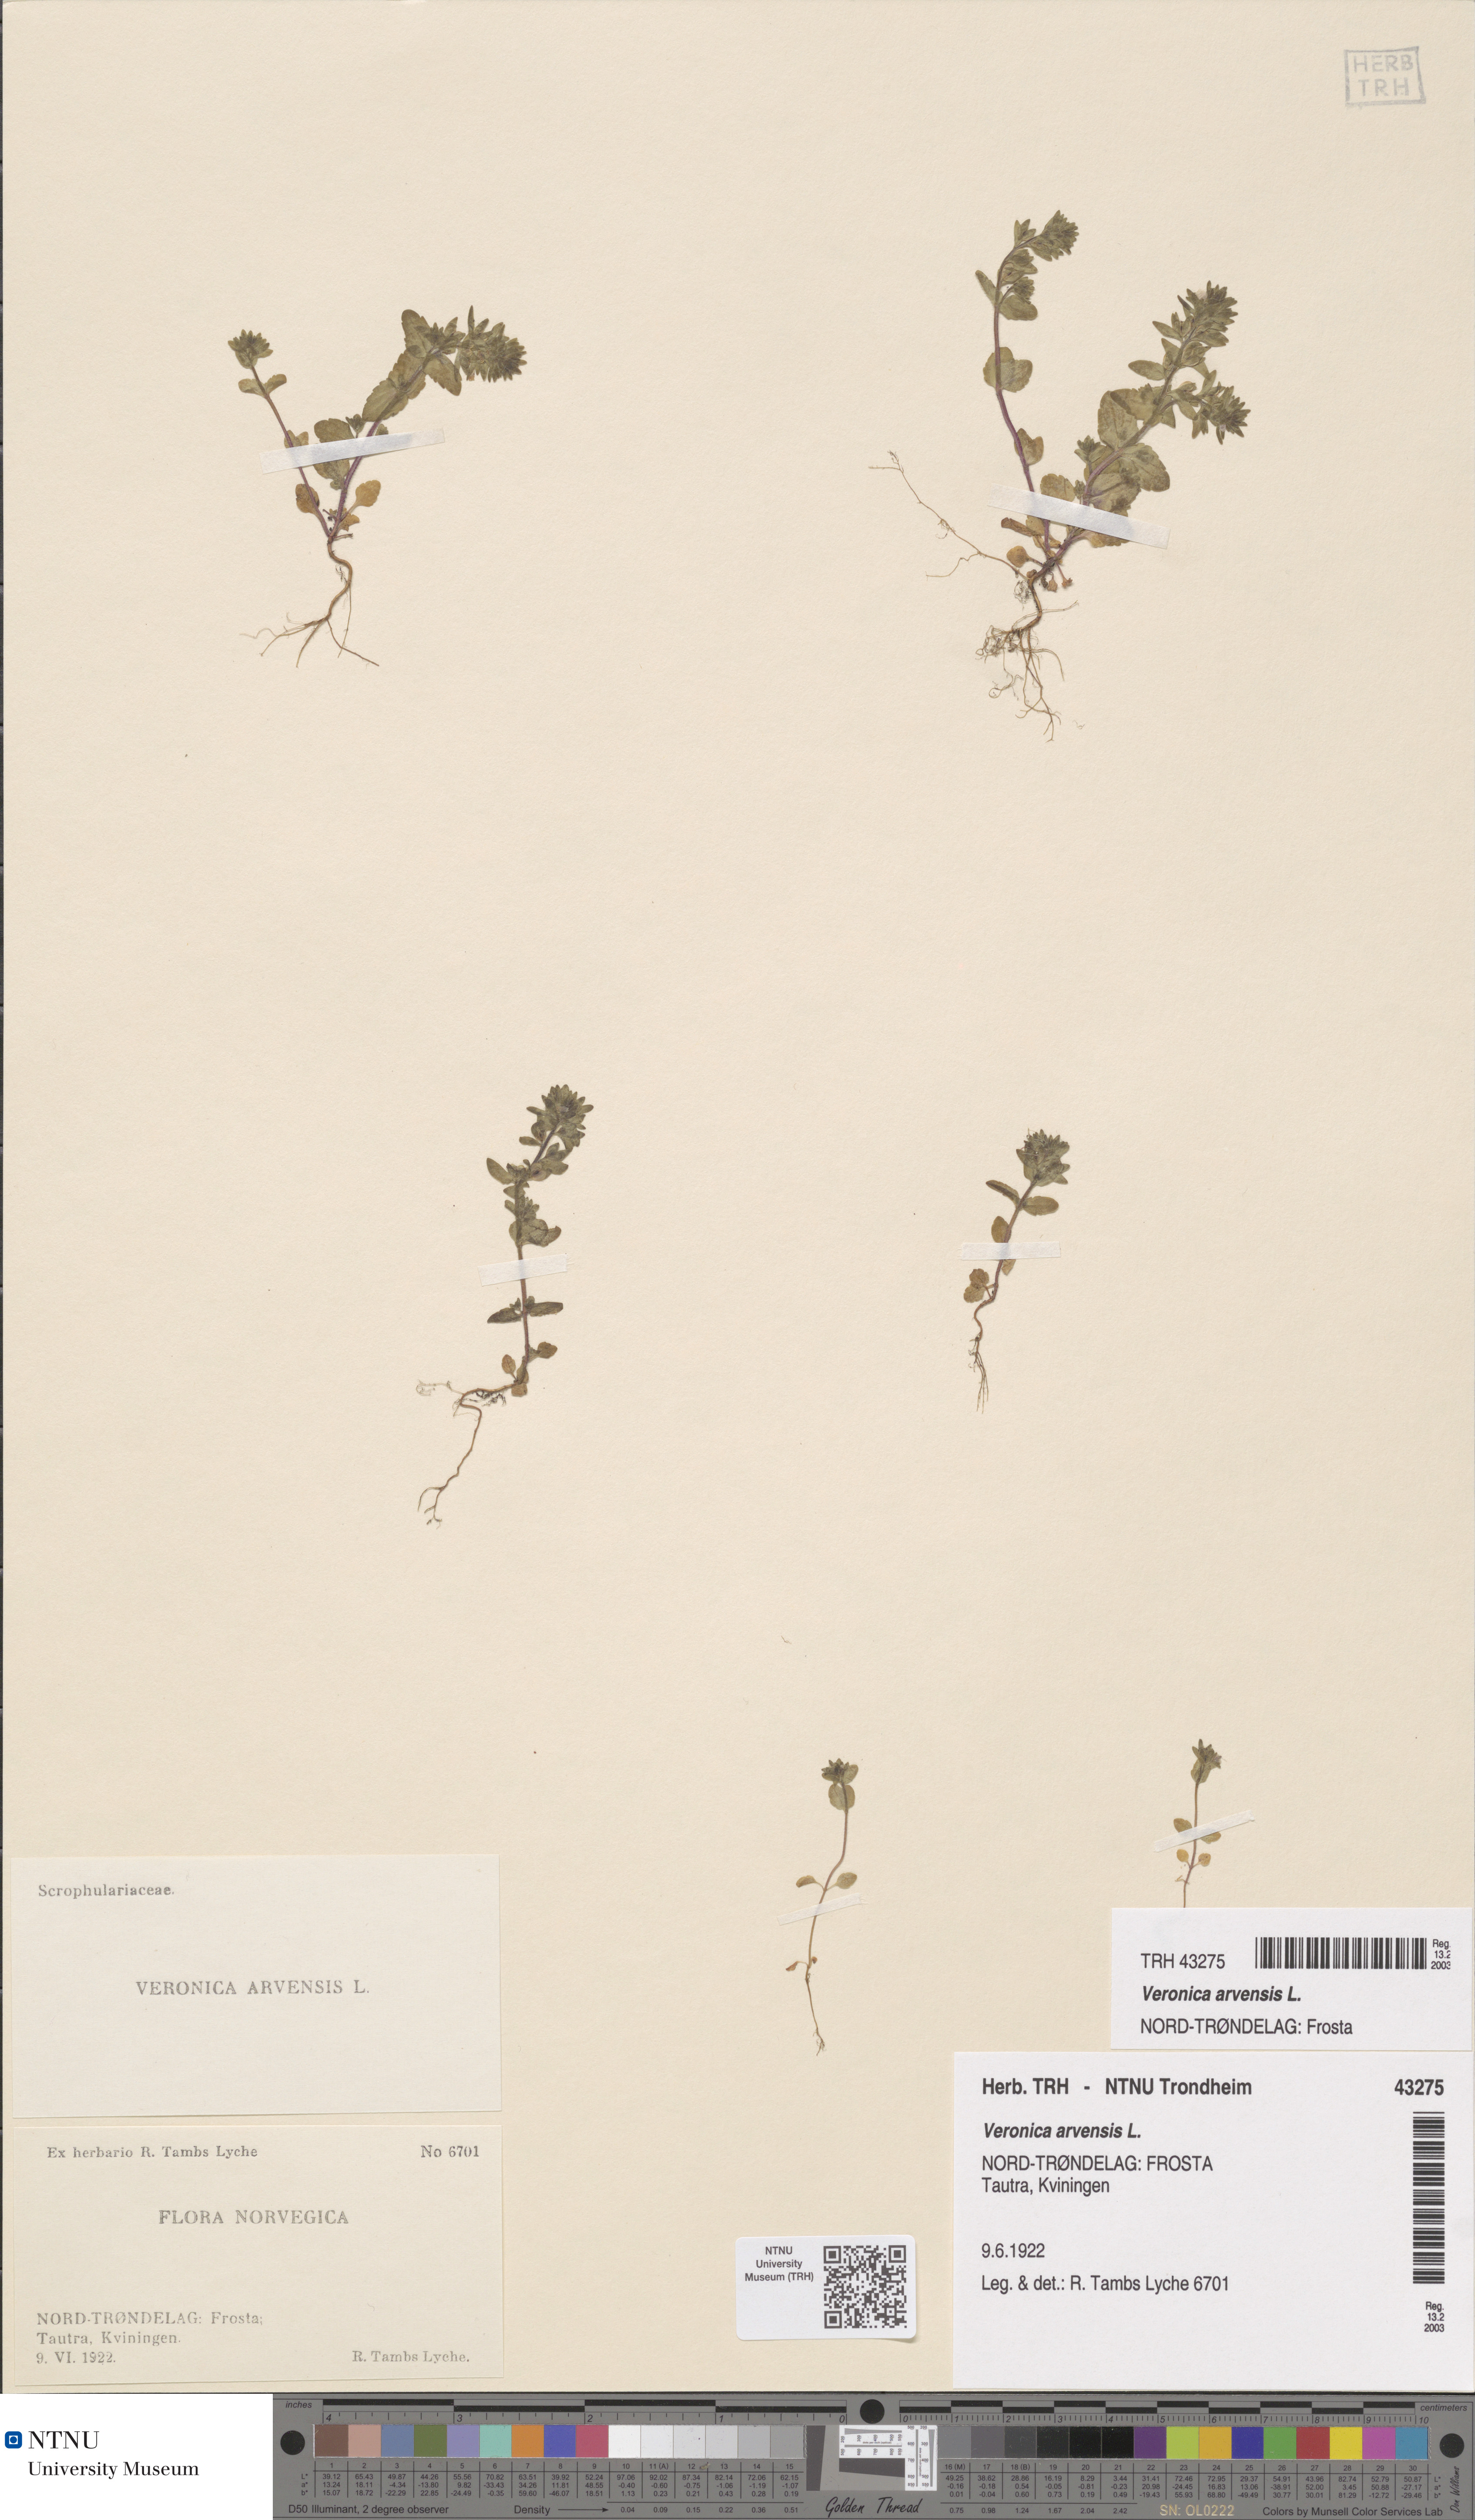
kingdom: Plantae
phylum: Tracheophyta
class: Magnoliopsida
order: Lamiales
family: Plantaginaceae
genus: Veronica
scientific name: Veronica arvensis
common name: Corn speedwell
